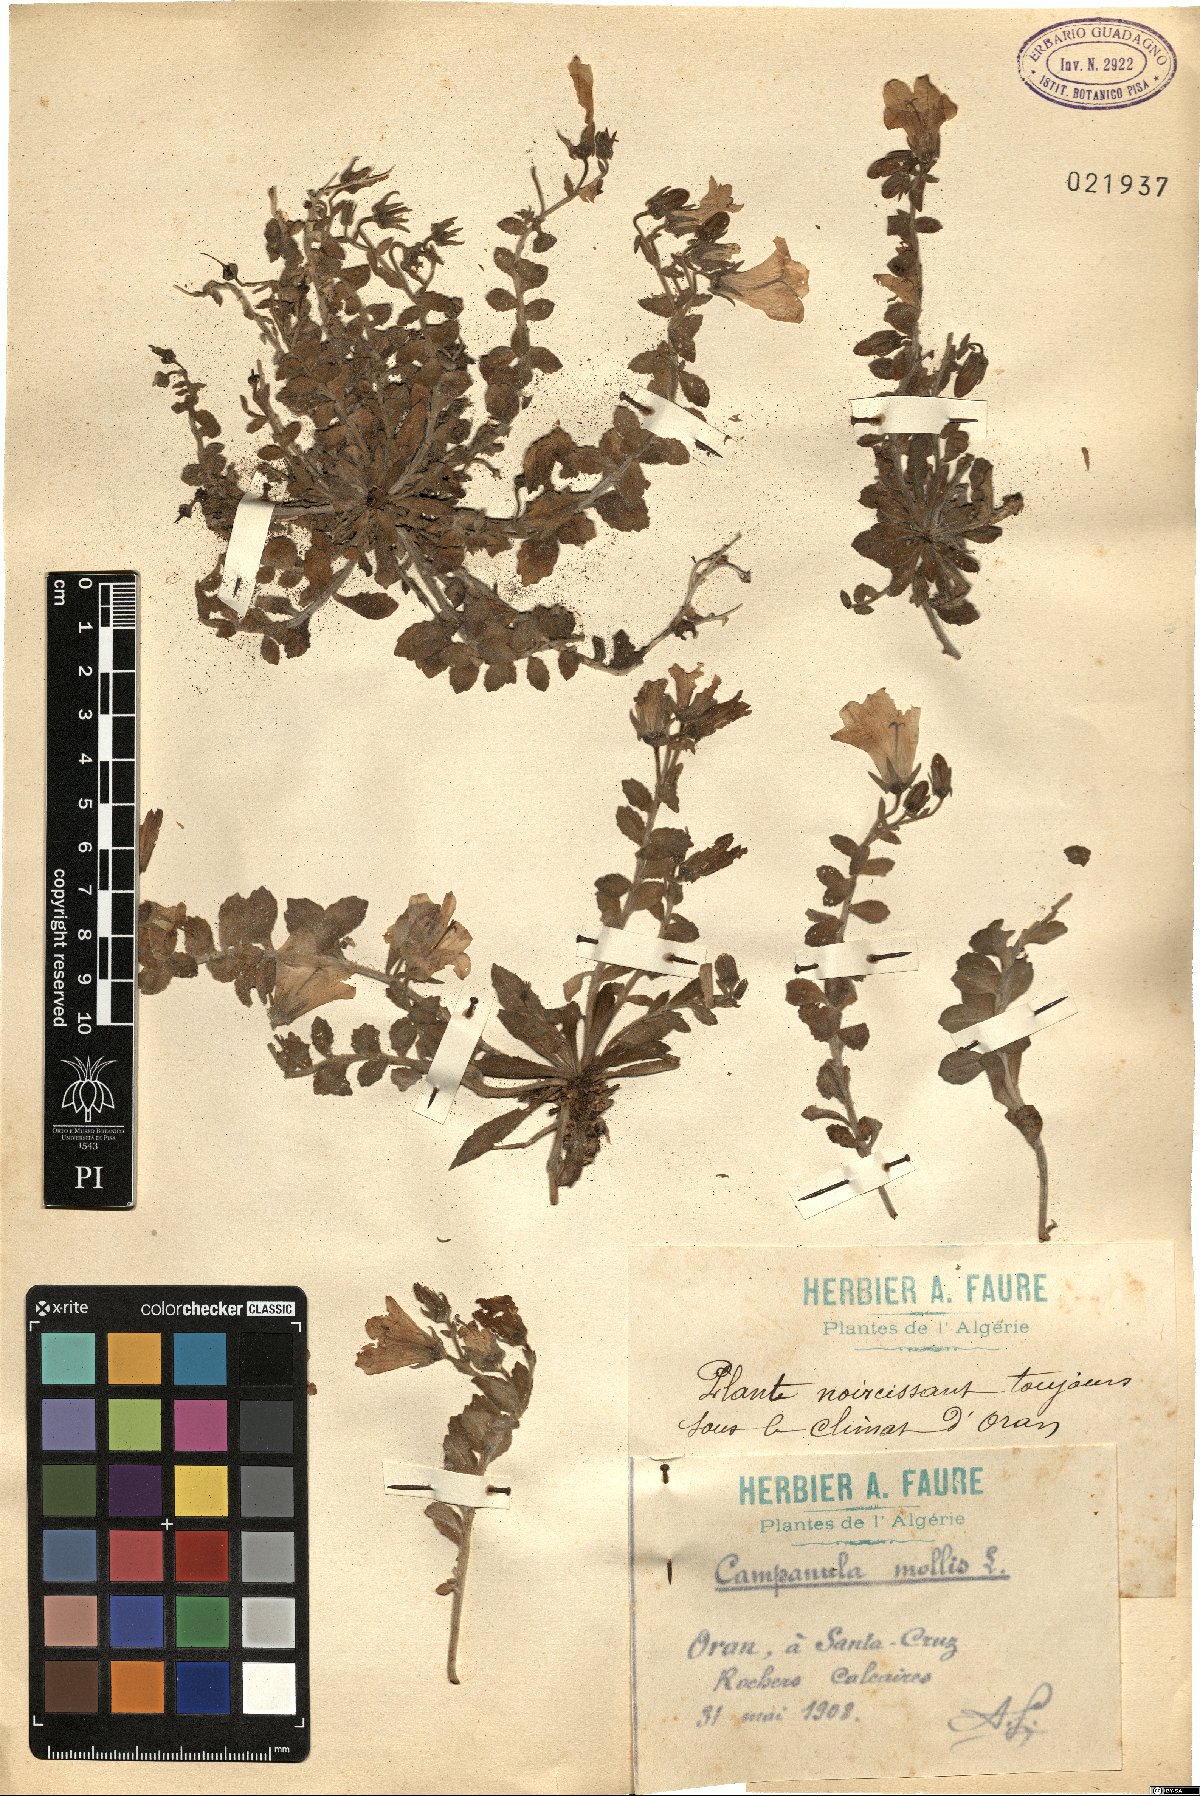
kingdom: Plantae
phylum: Tracheophyta
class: Magnoliopsida
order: Asterales
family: Campanulaceae
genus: Campanula
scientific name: Campanula mollis
